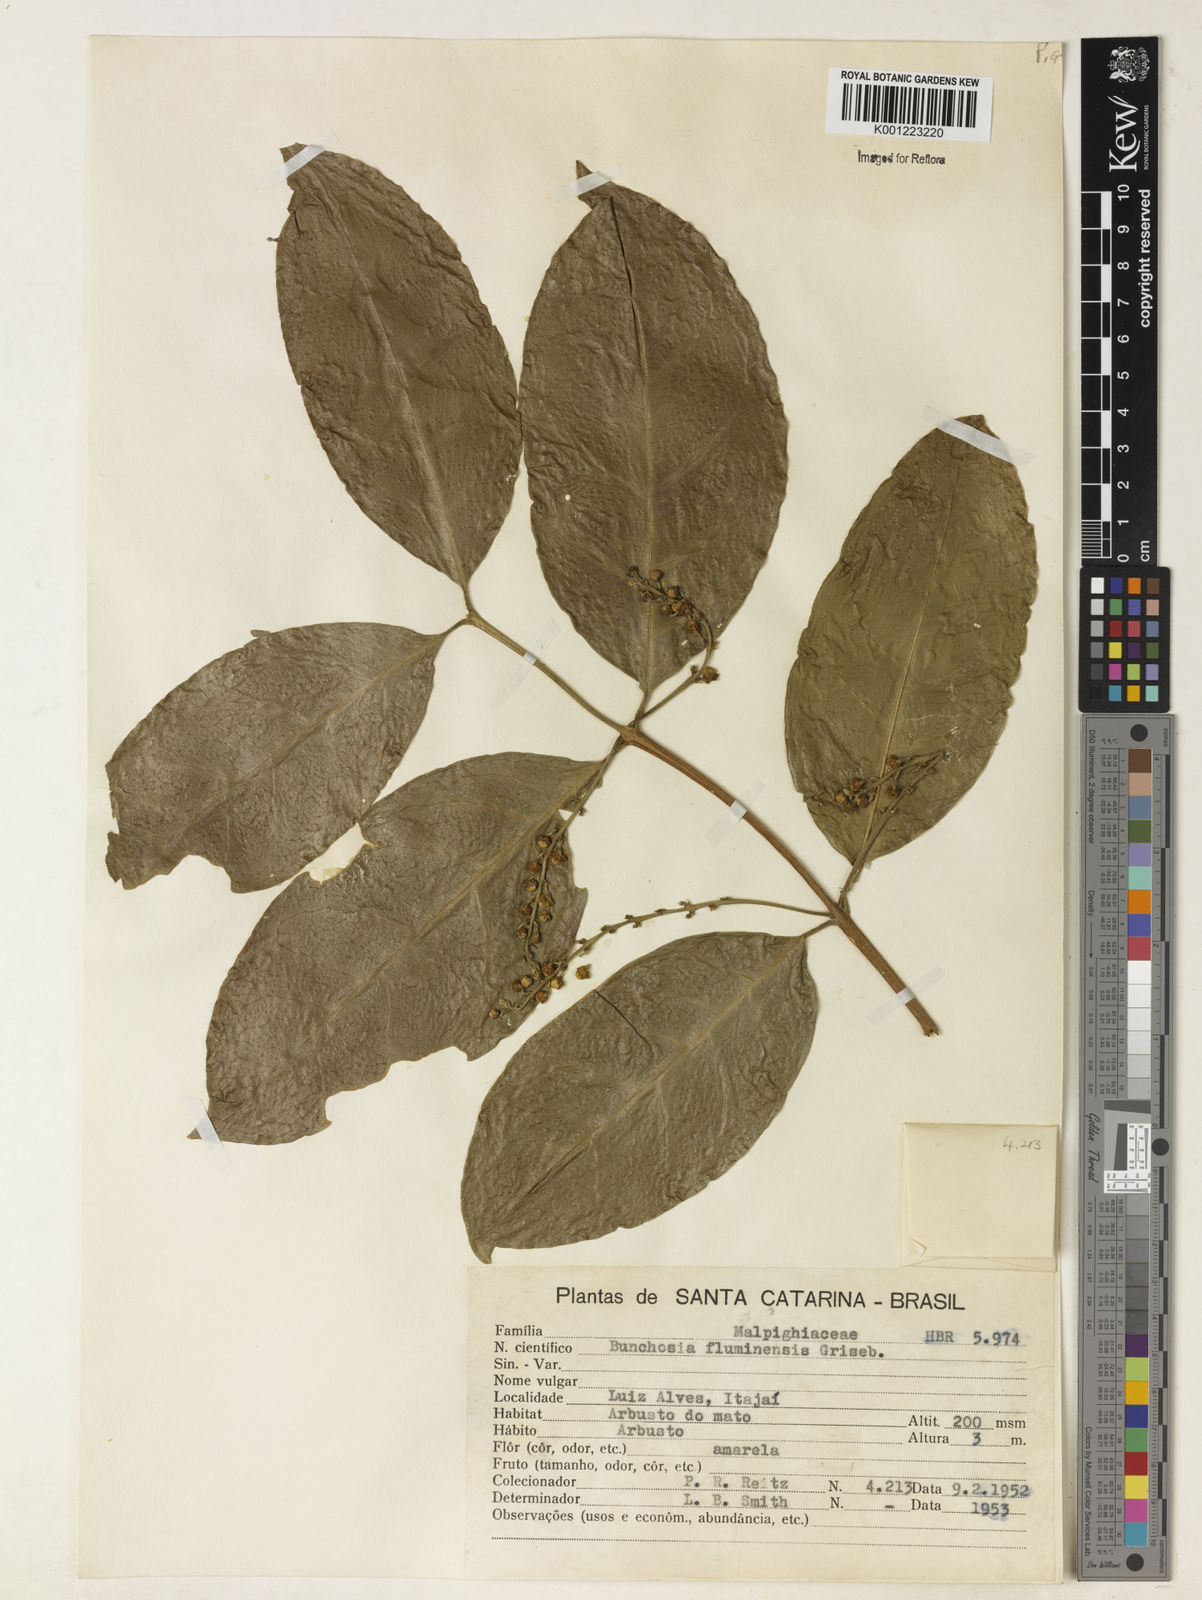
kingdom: Plantae
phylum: Tracheophyta
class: Magnoliopsida
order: Malpighiales
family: Malpighiaceae
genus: Bunchosia
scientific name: Bunchosia fluminensis
